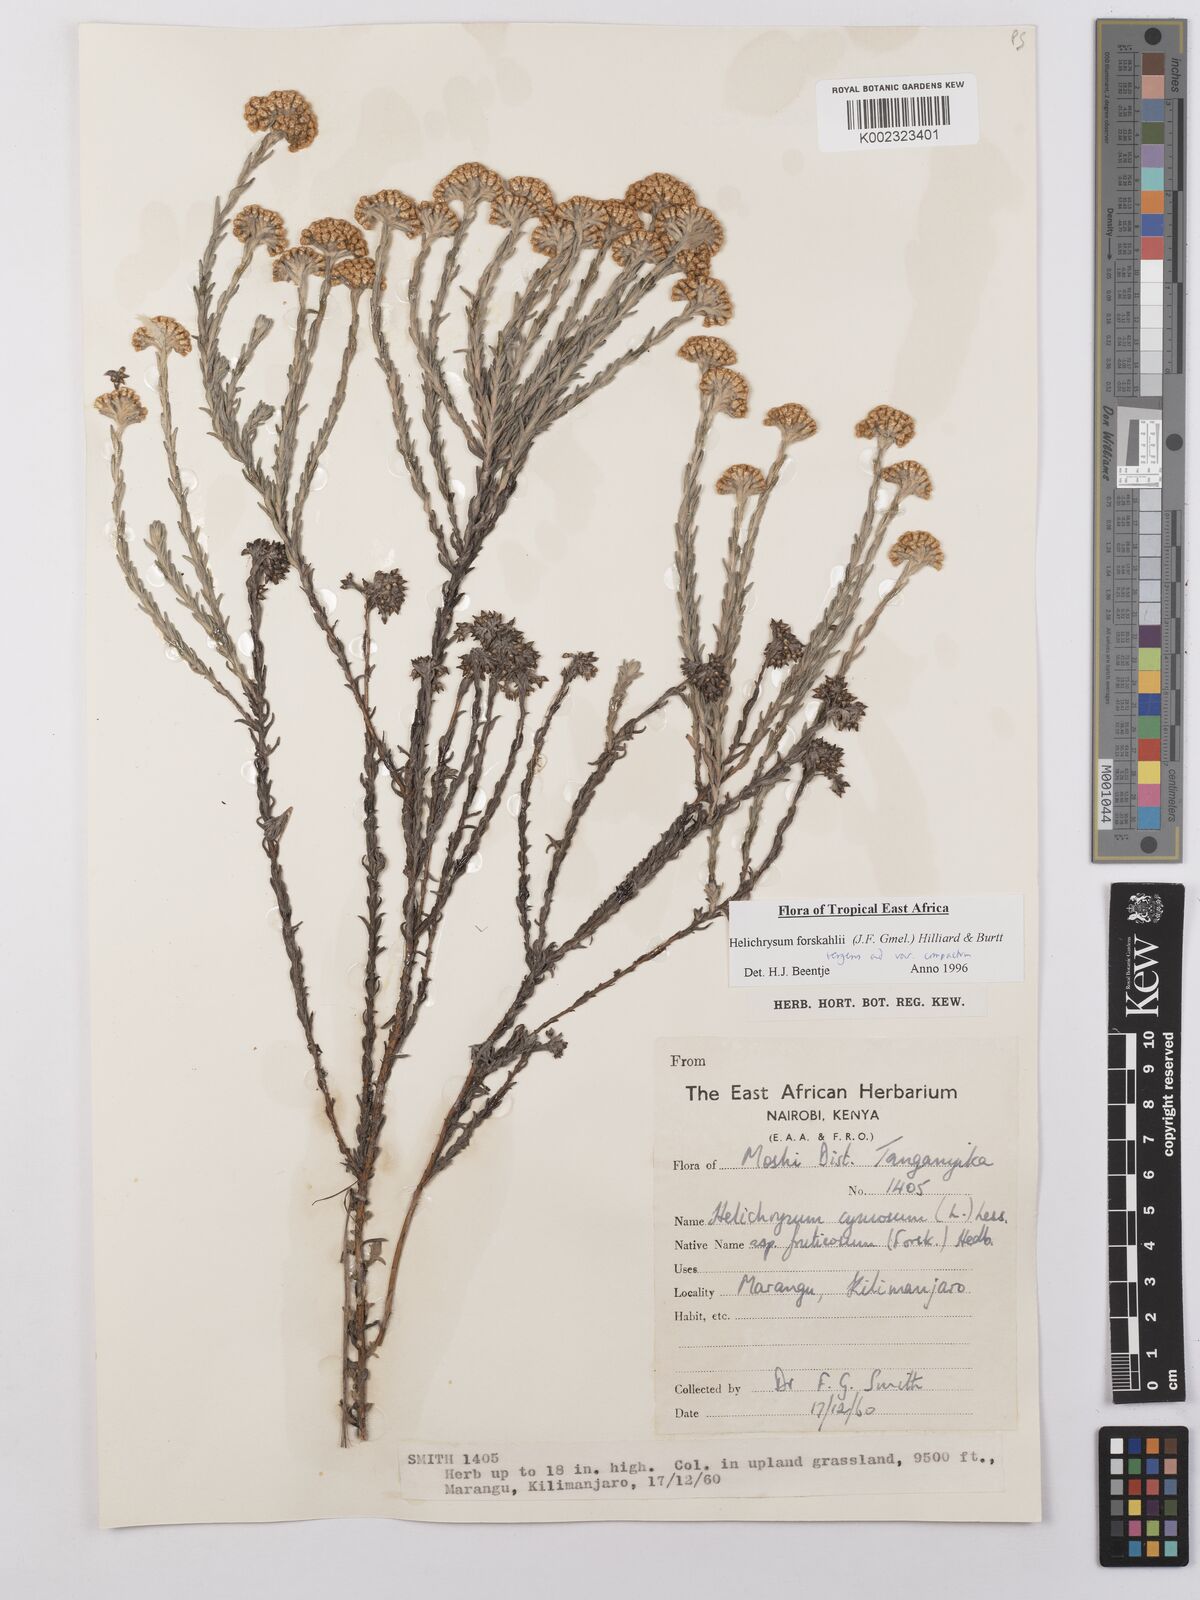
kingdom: Plantae
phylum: Tracheophyta
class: Magnoliopsida
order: Asterales
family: Asteraceae
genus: Helichrysum
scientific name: Helichrysum forskahlii
